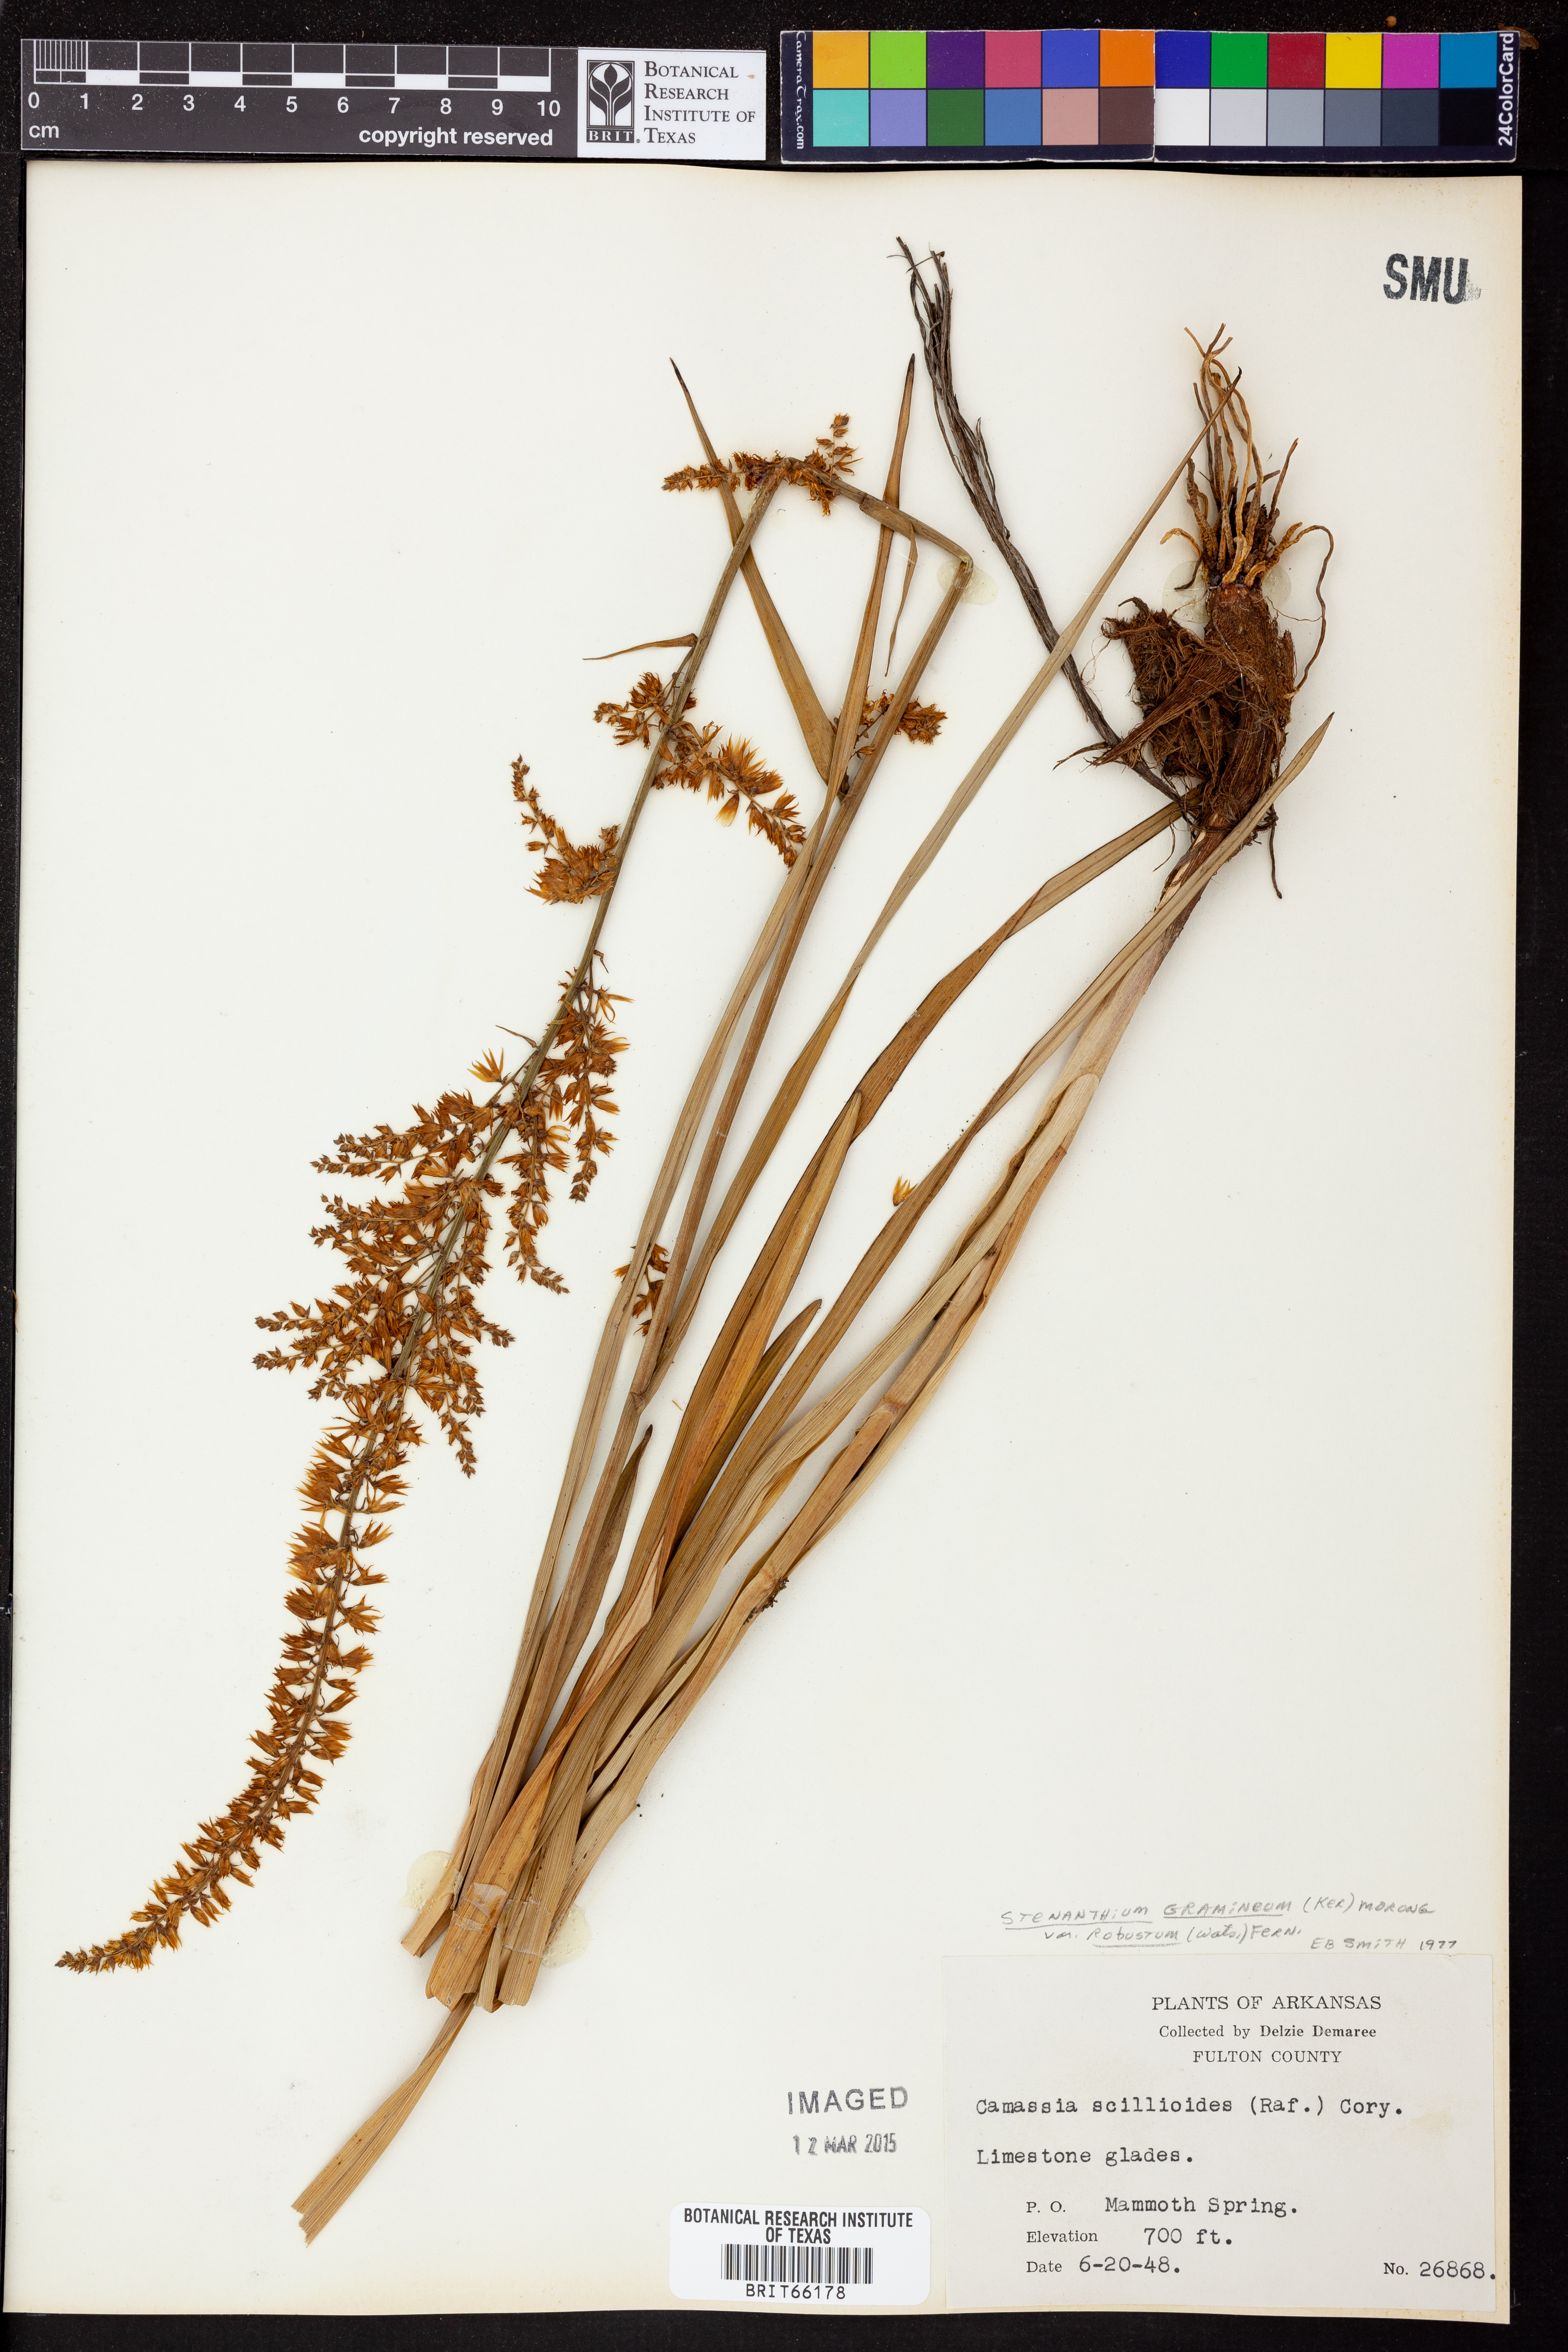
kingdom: Plantae
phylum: Tracheophyta
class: Liliopsida
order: Liliales
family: Melanthiaceae
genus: Stenanthium
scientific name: Stenanthium gramineum
